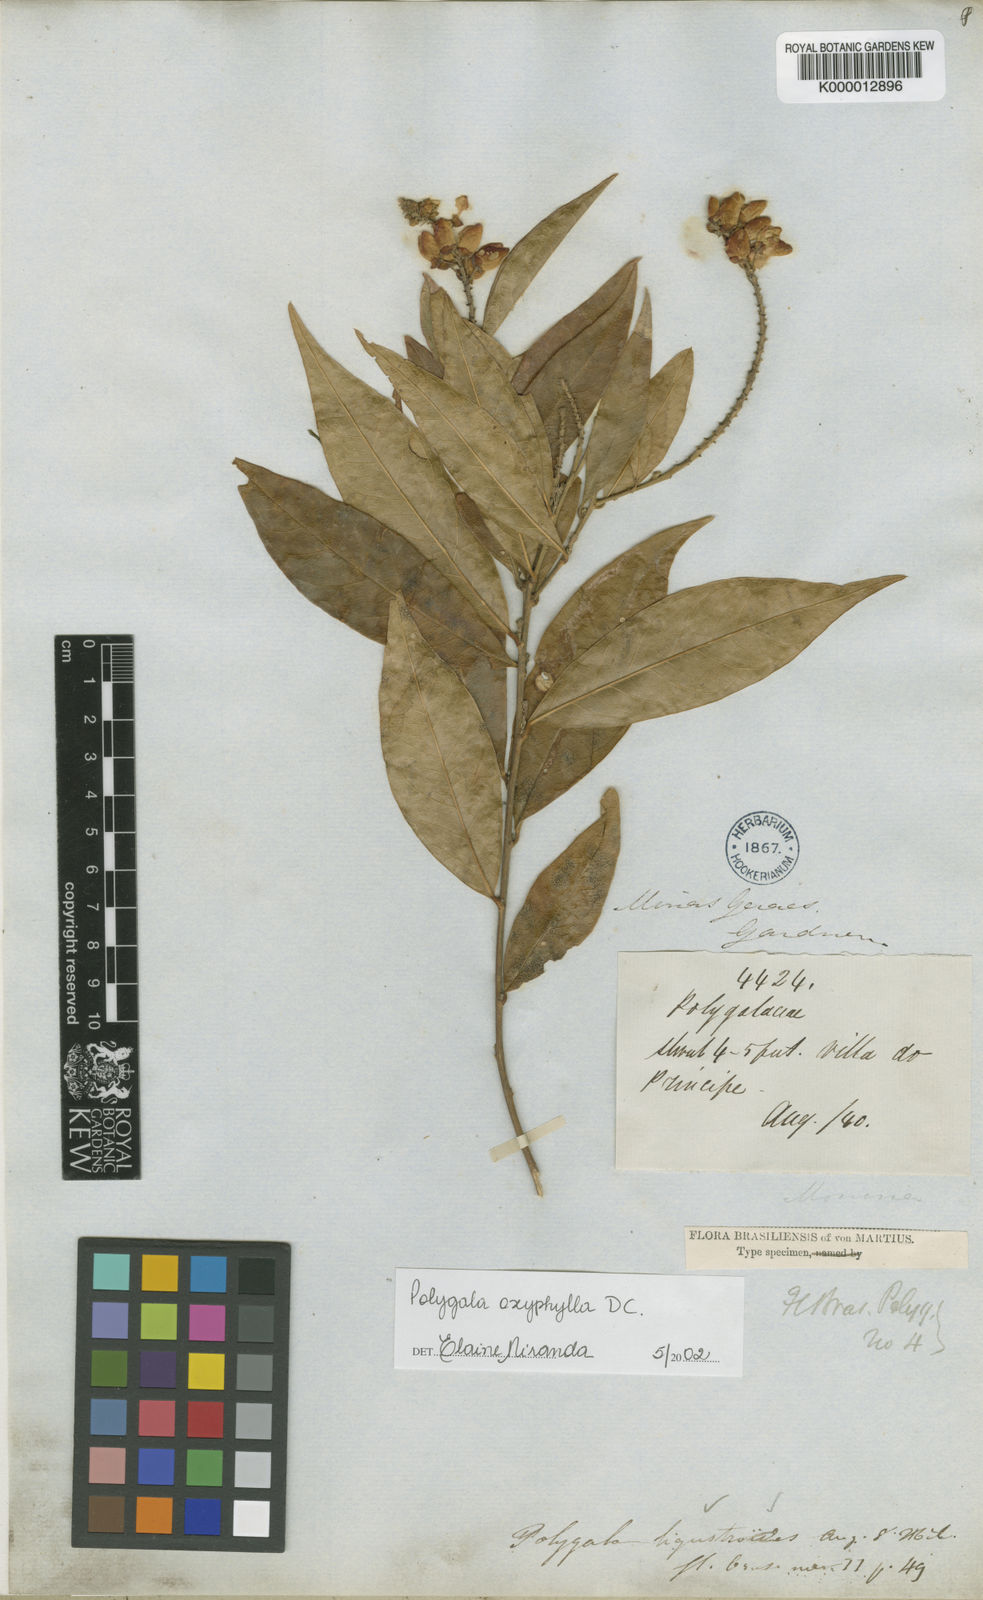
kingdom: Plantae
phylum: Tracheophyta
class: Magnoliopsida
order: Fabales
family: Polygalaceae
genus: Caamembeca
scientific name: Caamembeca oxyphylla
